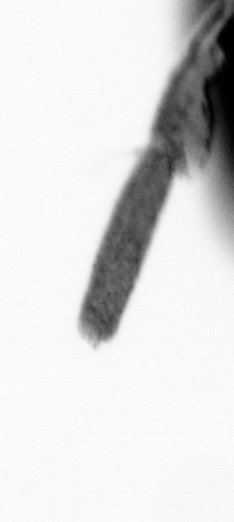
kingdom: Animalia
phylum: Arthropoda
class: Copepoda
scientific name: Copepoda
